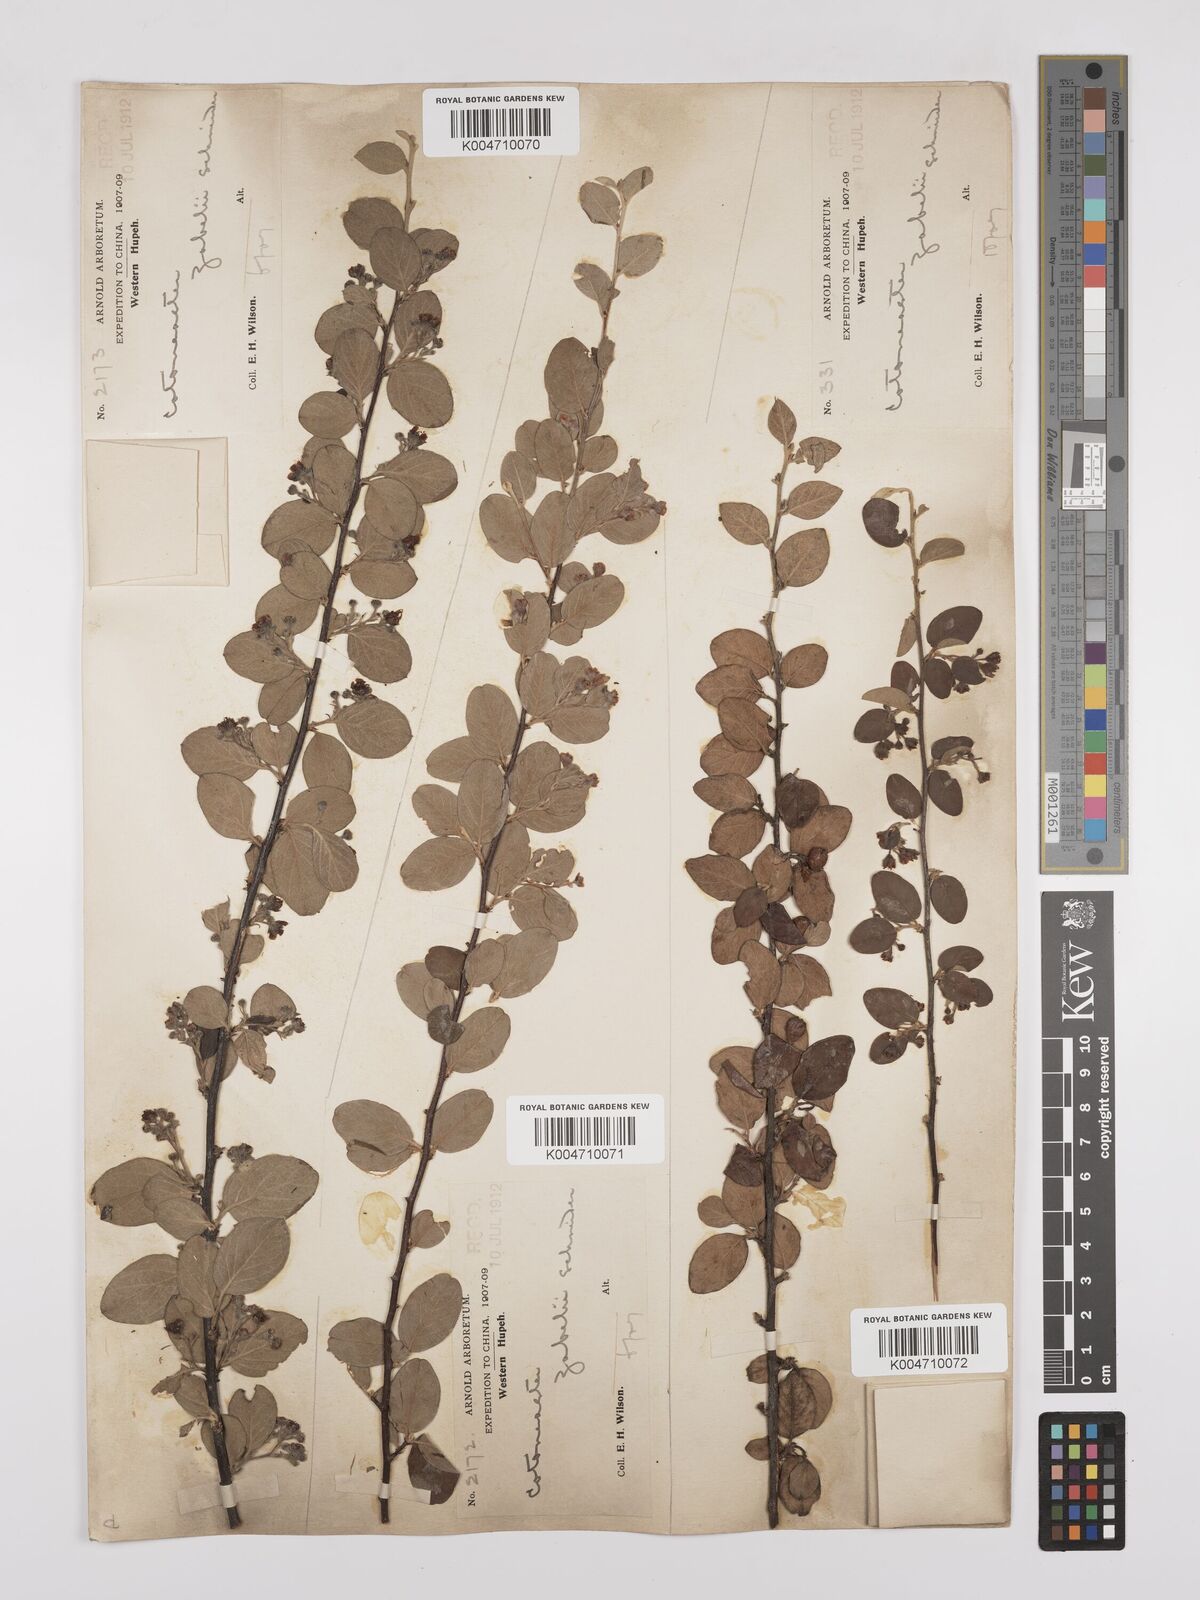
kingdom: Plantae
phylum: Tracheophyta
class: Magnoliopsida
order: Rosales
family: Rosaceae
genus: Cotoneaster
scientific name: Cotoneaster zabelii
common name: Cherryred cotoneaster
